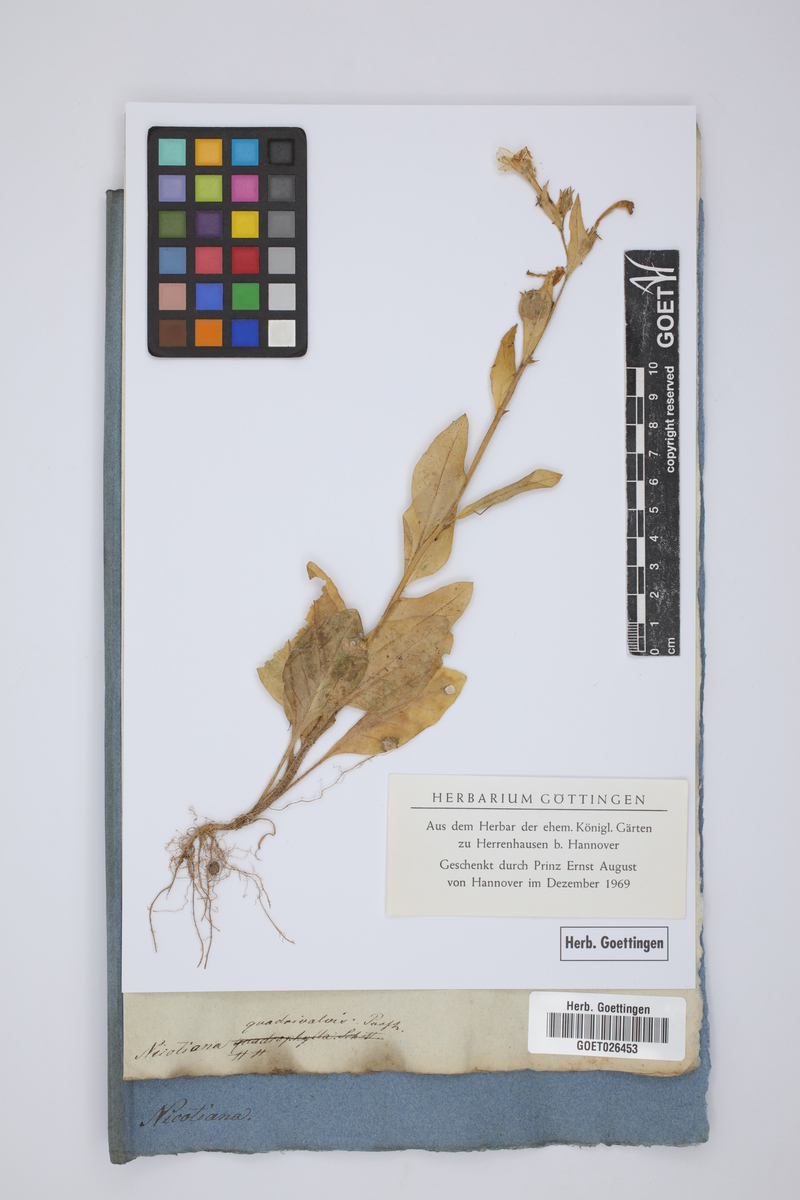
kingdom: Plantae
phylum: Tracheophyta
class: Magnoliopsida
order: Solanales
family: Solanaceae
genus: Nicotiana
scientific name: Nicotiana quadrivalvis
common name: Indian tobacco
